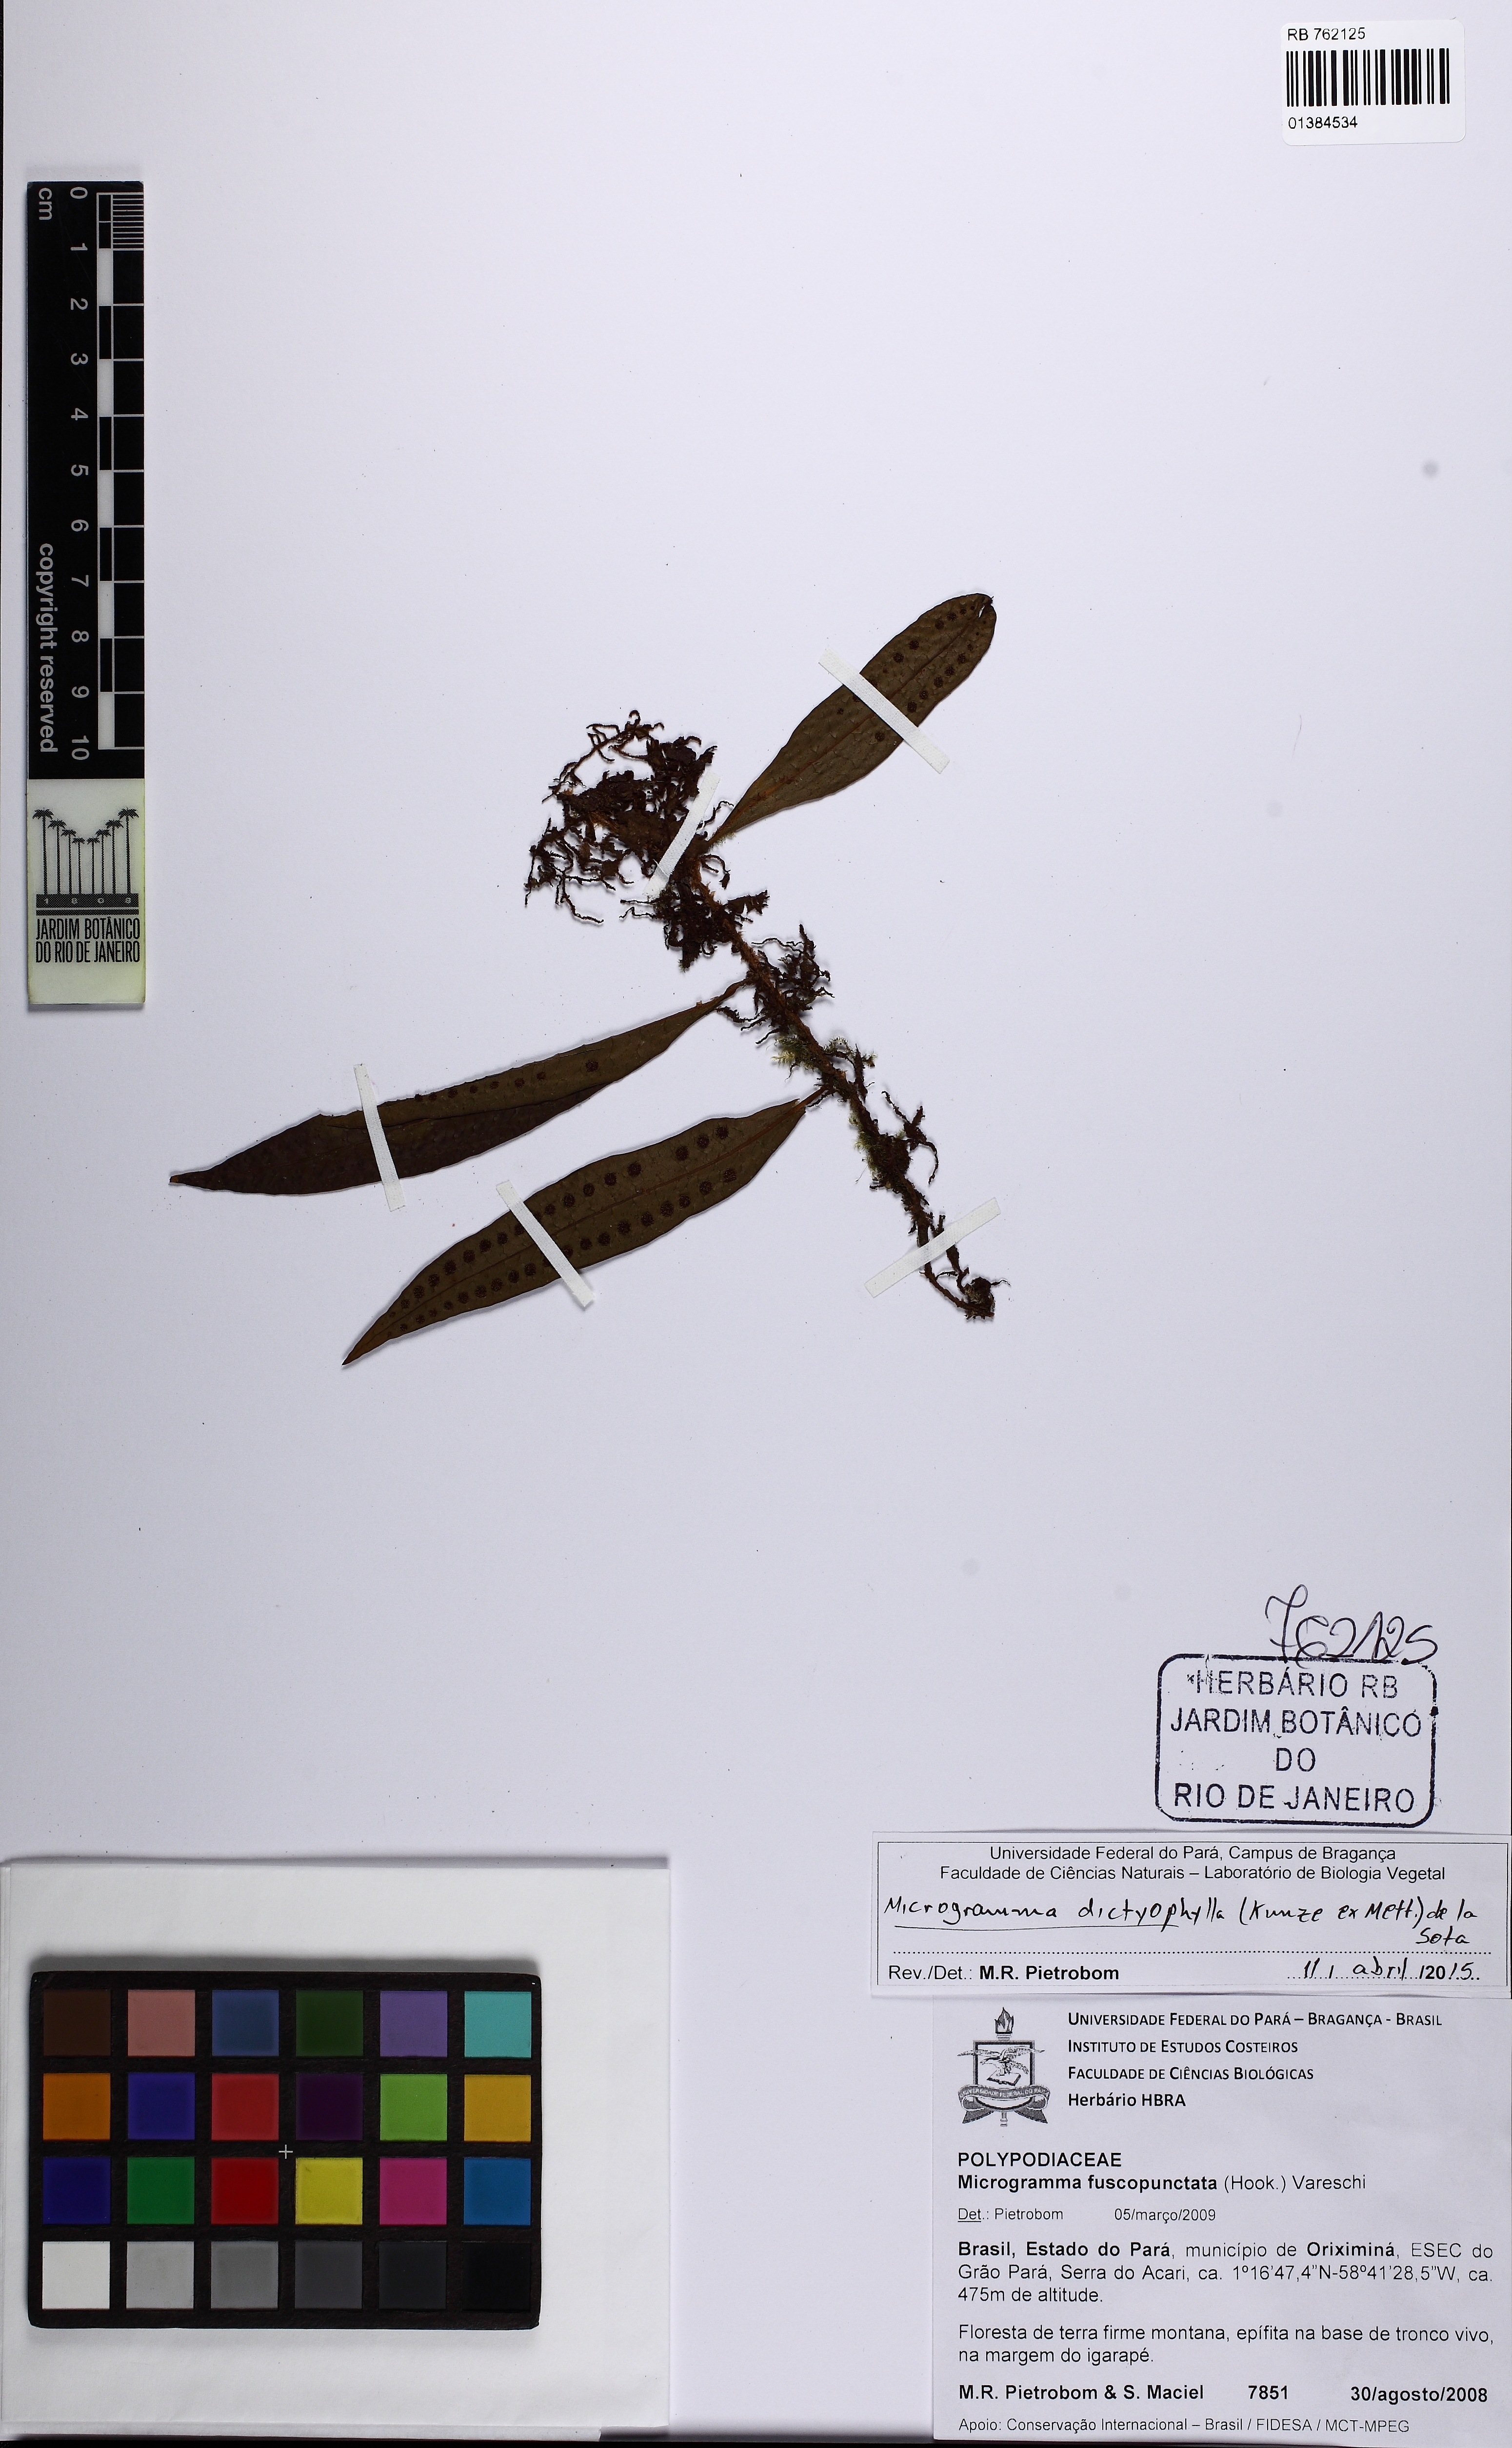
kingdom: Plantae
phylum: Tracheophyta
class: Polypodiopsida
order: Polypodiales
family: Polypodiaceae
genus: Microgramma
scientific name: Microgramma dictyophylla
